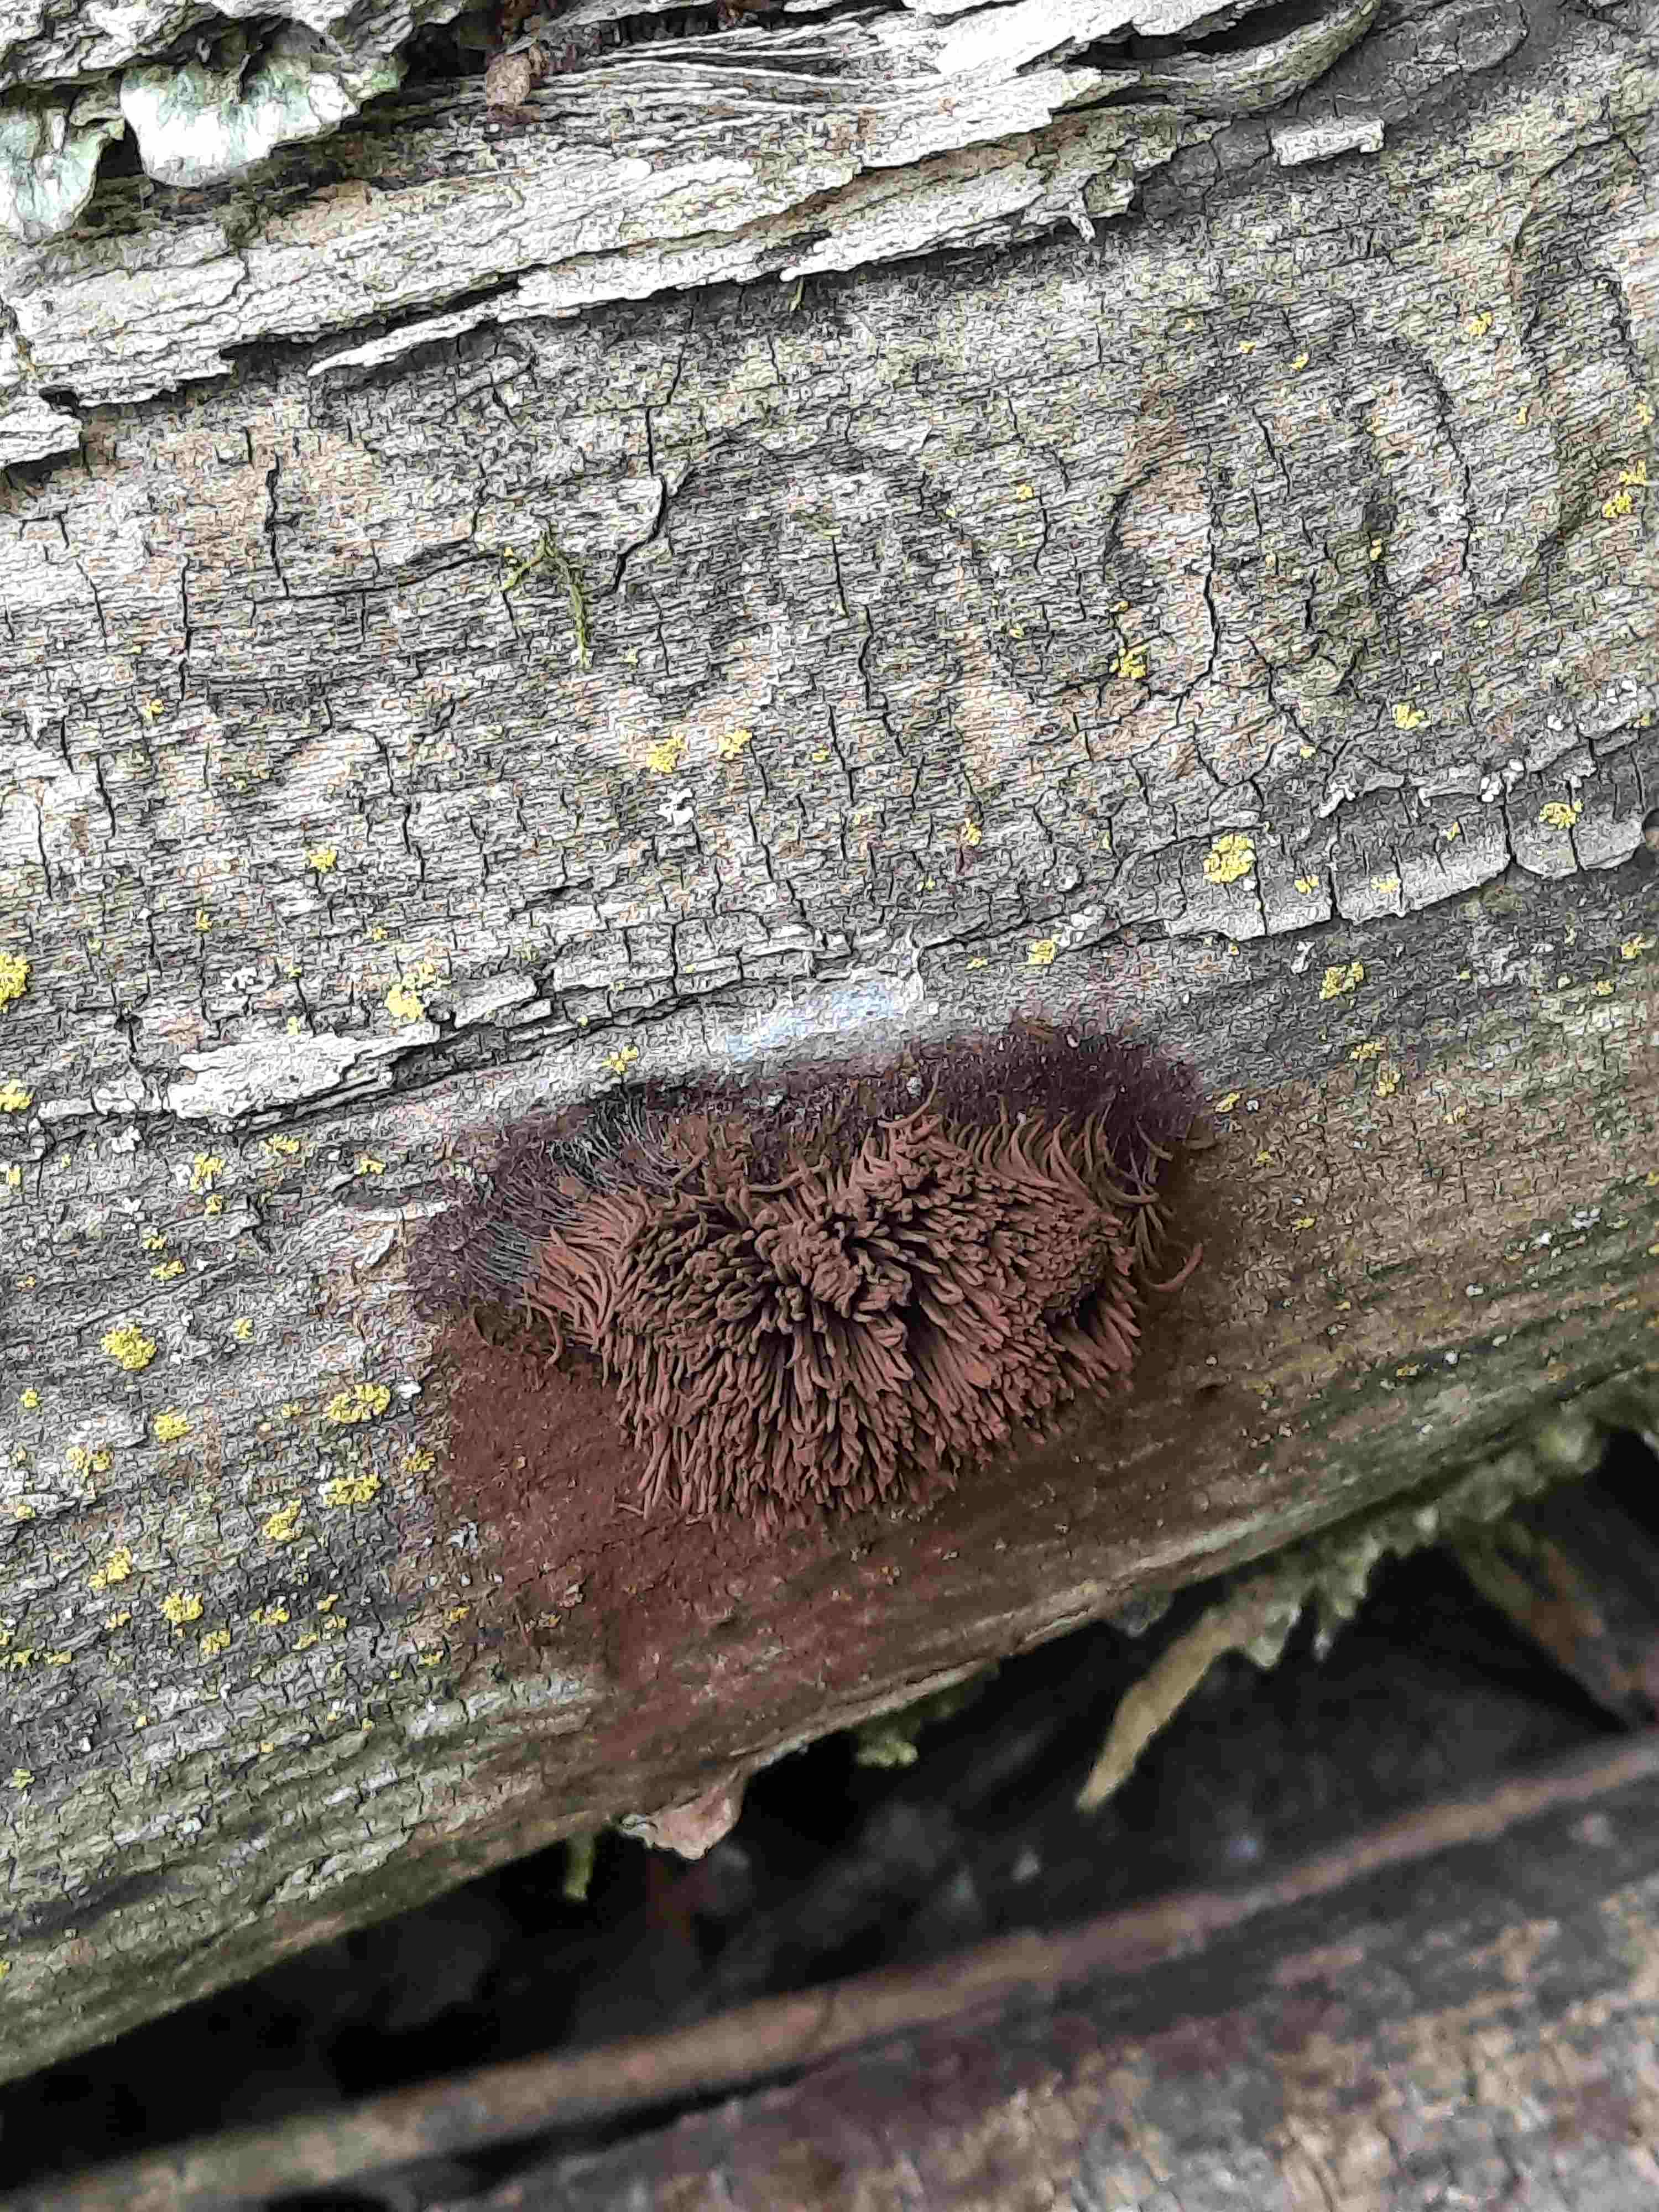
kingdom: Protozoa
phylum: Mycetozoa
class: Myxomycetes
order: Stemonitidales
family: Stemonitidaceae
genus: Stemonitis
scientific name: Stemonitis
